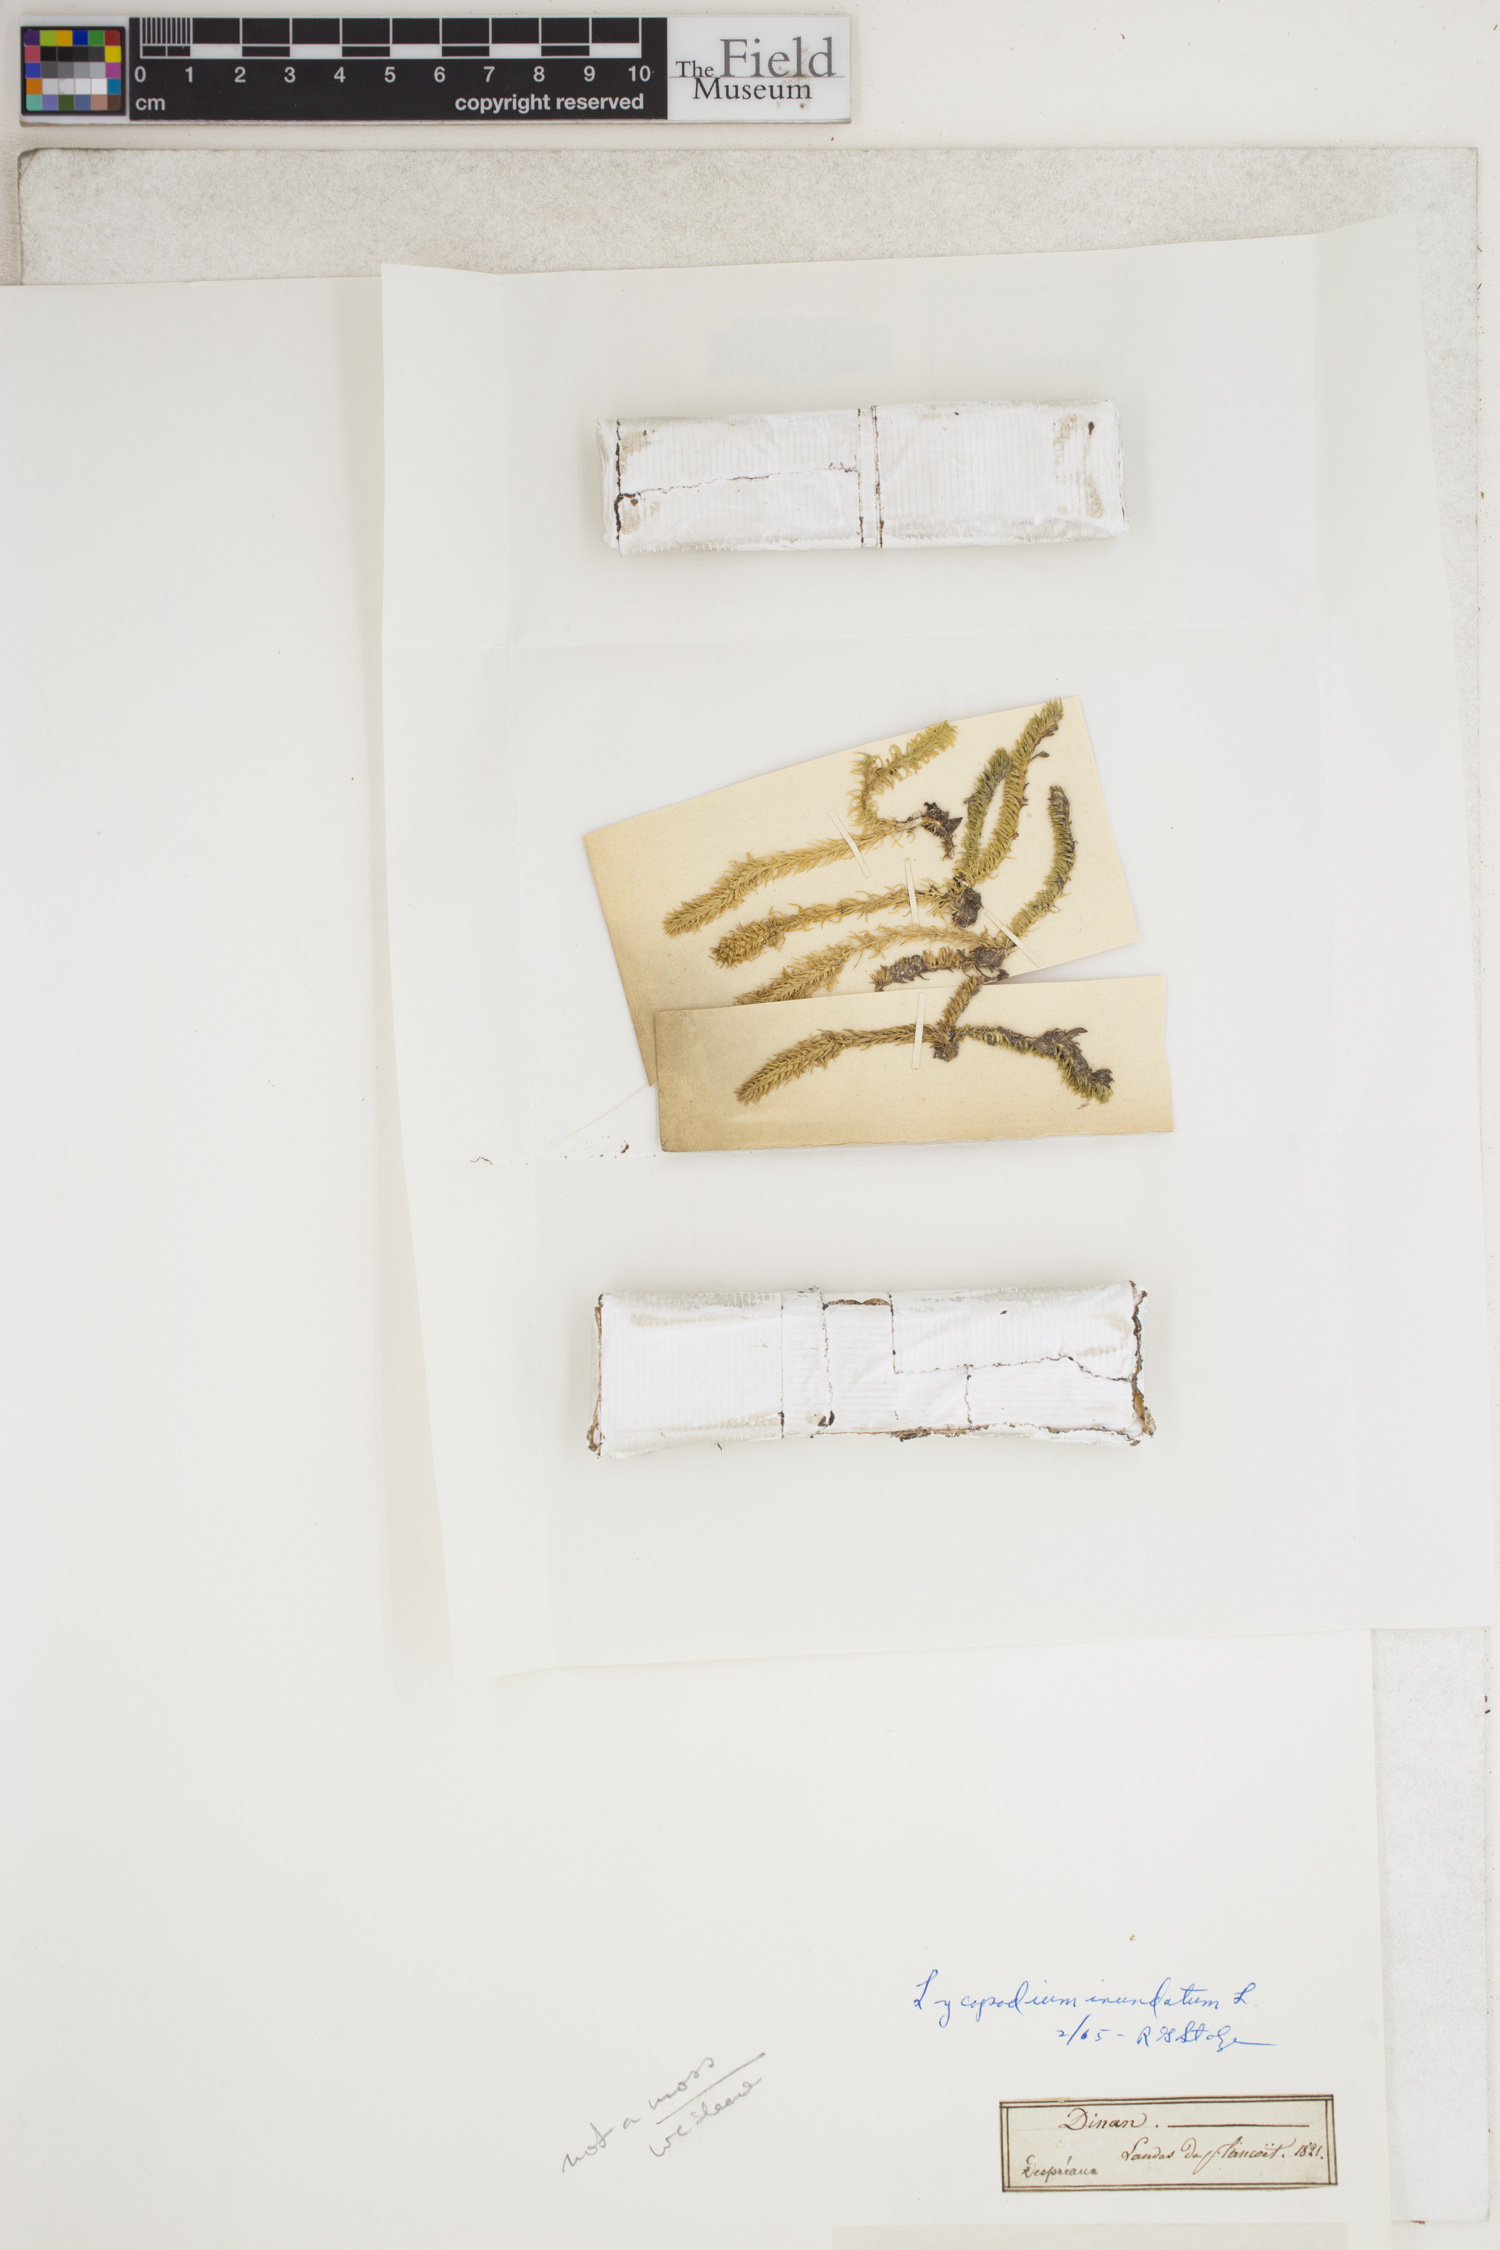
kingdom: Plantae
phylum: Tracheophyta
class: Lycopodiopsida
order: Lycopodiales
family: Lycopodiaceae
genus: Lycopodiella
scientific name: Lycopodiella inundata
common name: Marsh clubmoss
